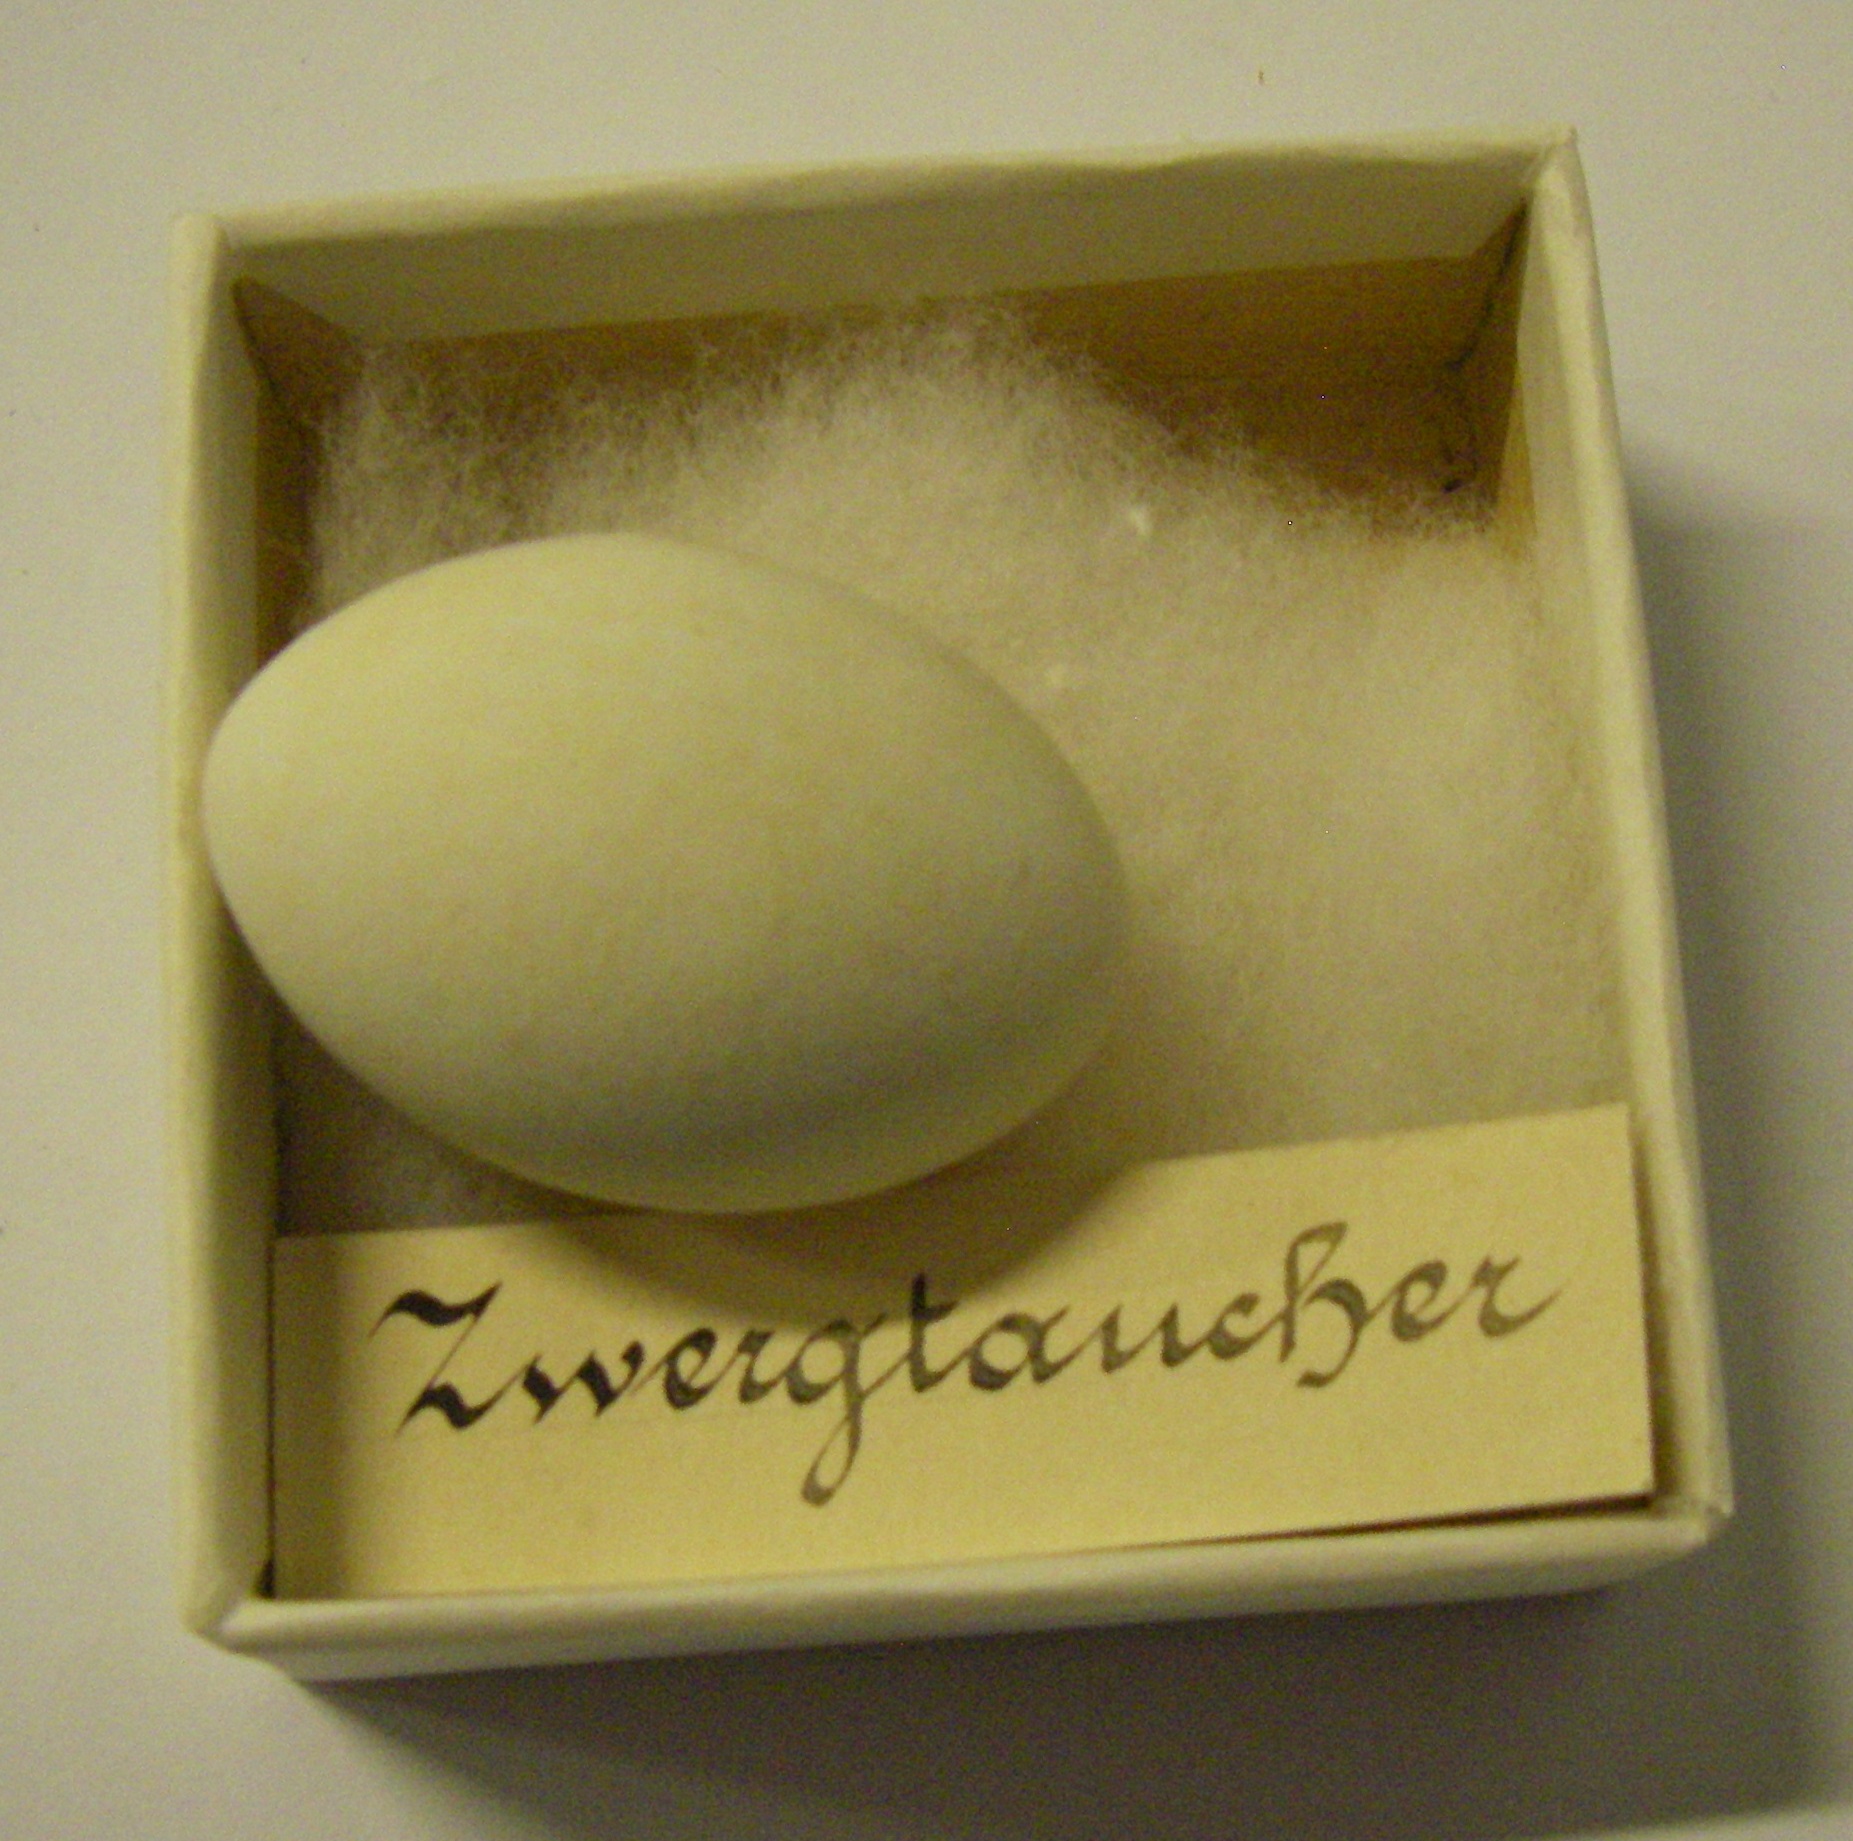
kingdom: Animalia
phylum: Chordata
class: Aves
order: Podicipediformes
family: Podicipedidae
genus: Tachybaptus
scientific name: Tachybaptus ruficollis
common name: Little grebe
